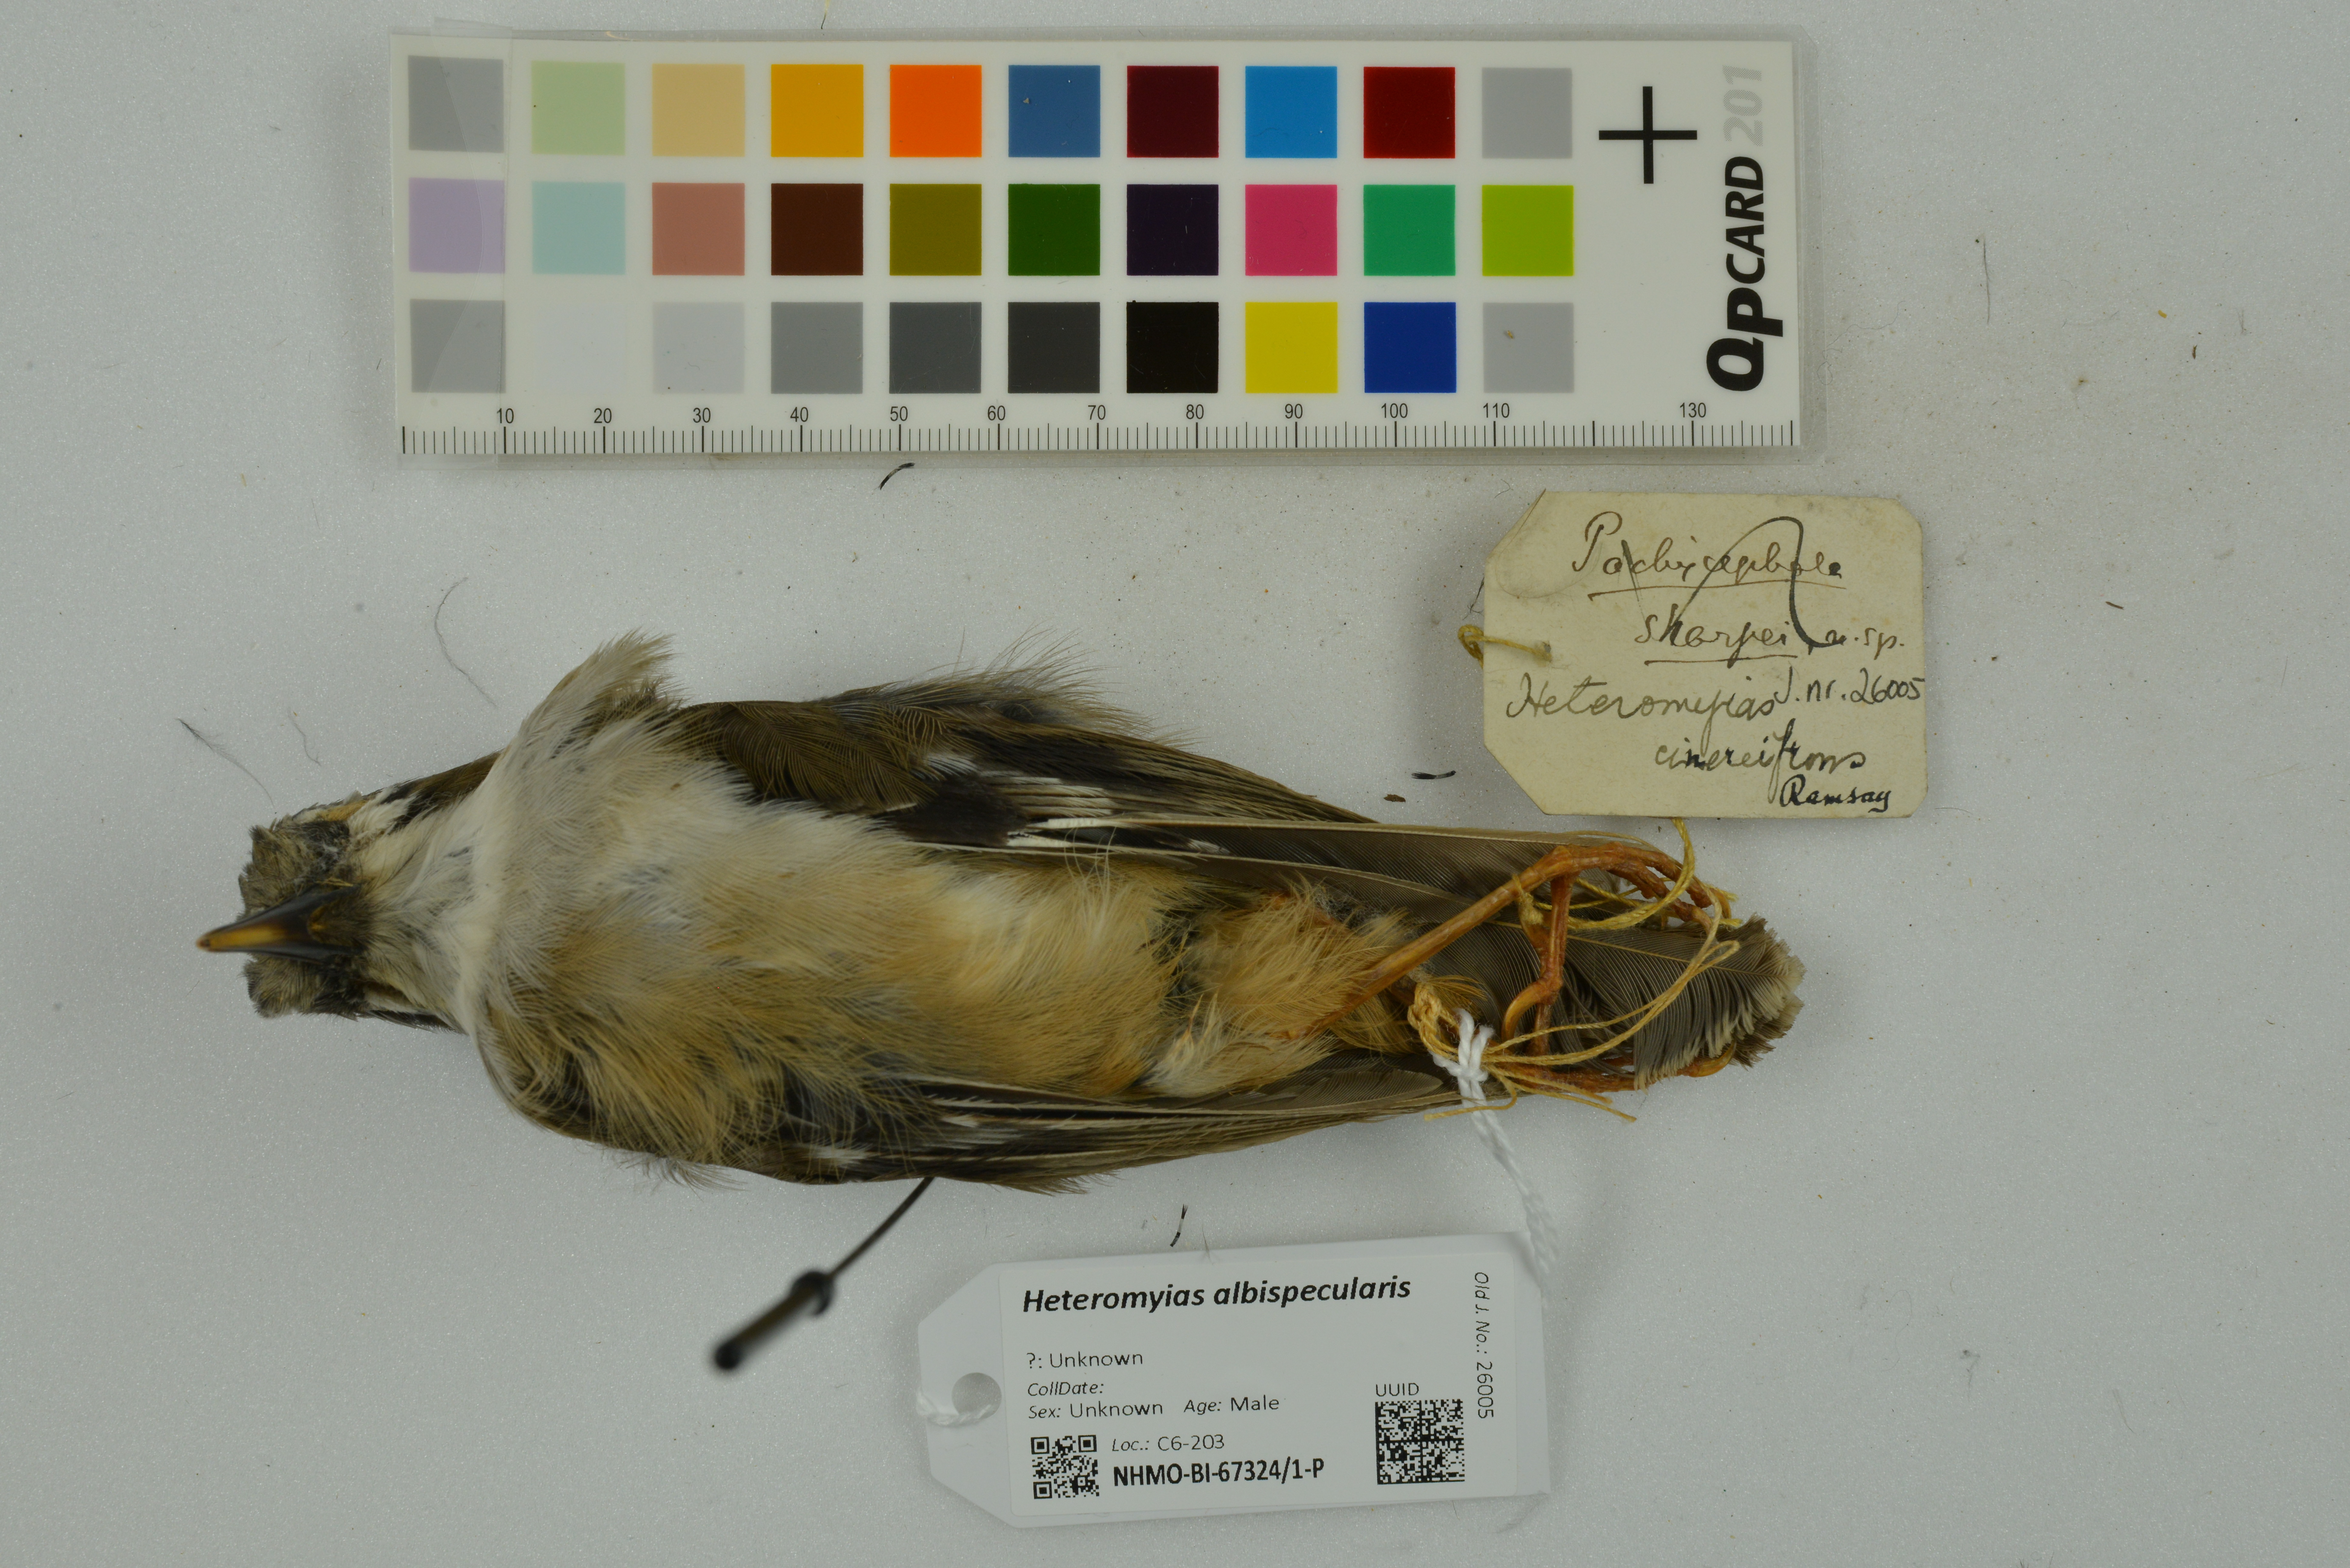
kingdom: Animalia
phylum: Chordata
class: Aves
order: Passeriformes
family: Petroicidae
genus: Heteromyias
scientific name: Heteromyias albispecularis
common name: Ashy robin
